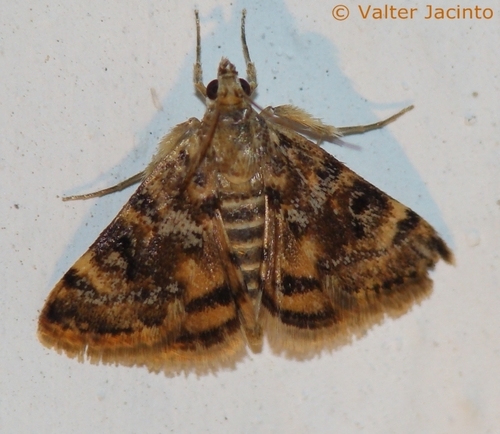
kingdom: Animalia
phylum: Arthropoda
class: Insecta
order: Lepidoptera
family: Crambidae
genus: Noctuelia
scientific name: Noctuelia Aporodes floralis
